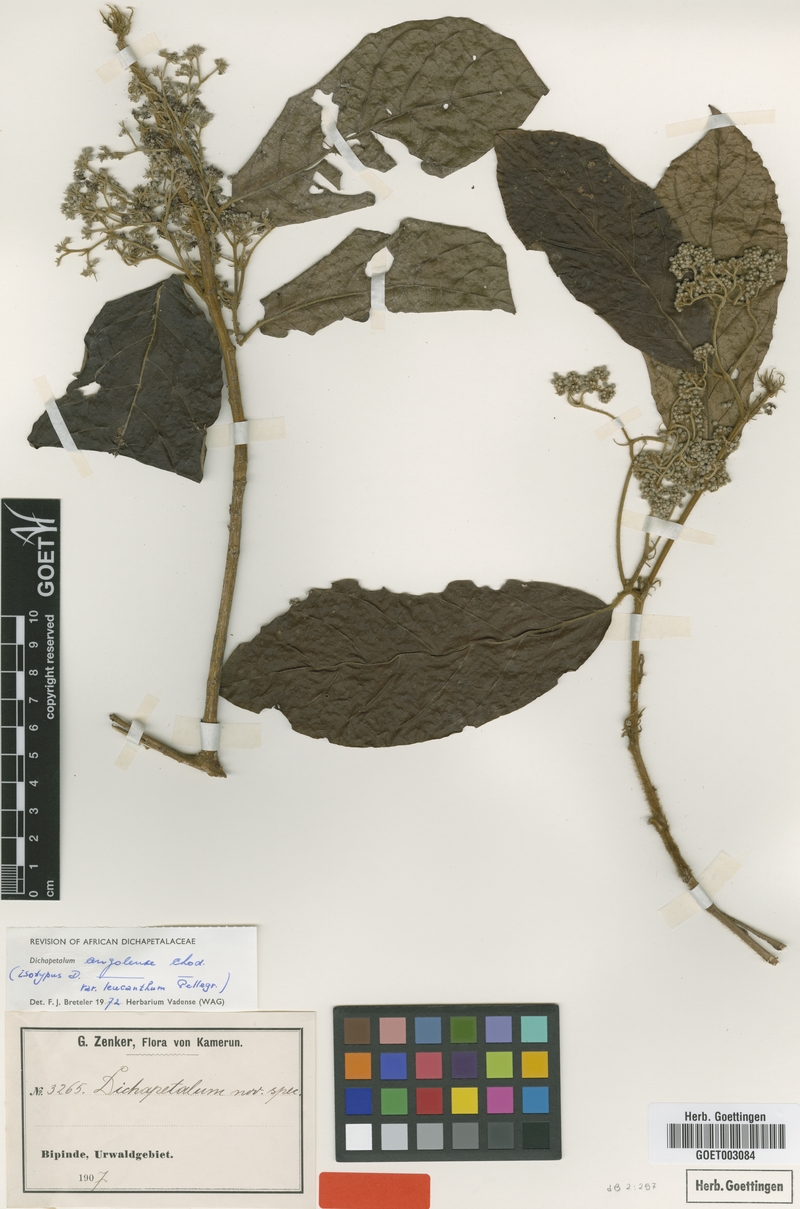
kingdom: Plantae
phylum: Tracheophyta
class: Magnoliopsida
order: Malpighiales
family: Dichapetalaceae
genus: Dichapetalum
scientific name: Dichapetalum angolense
